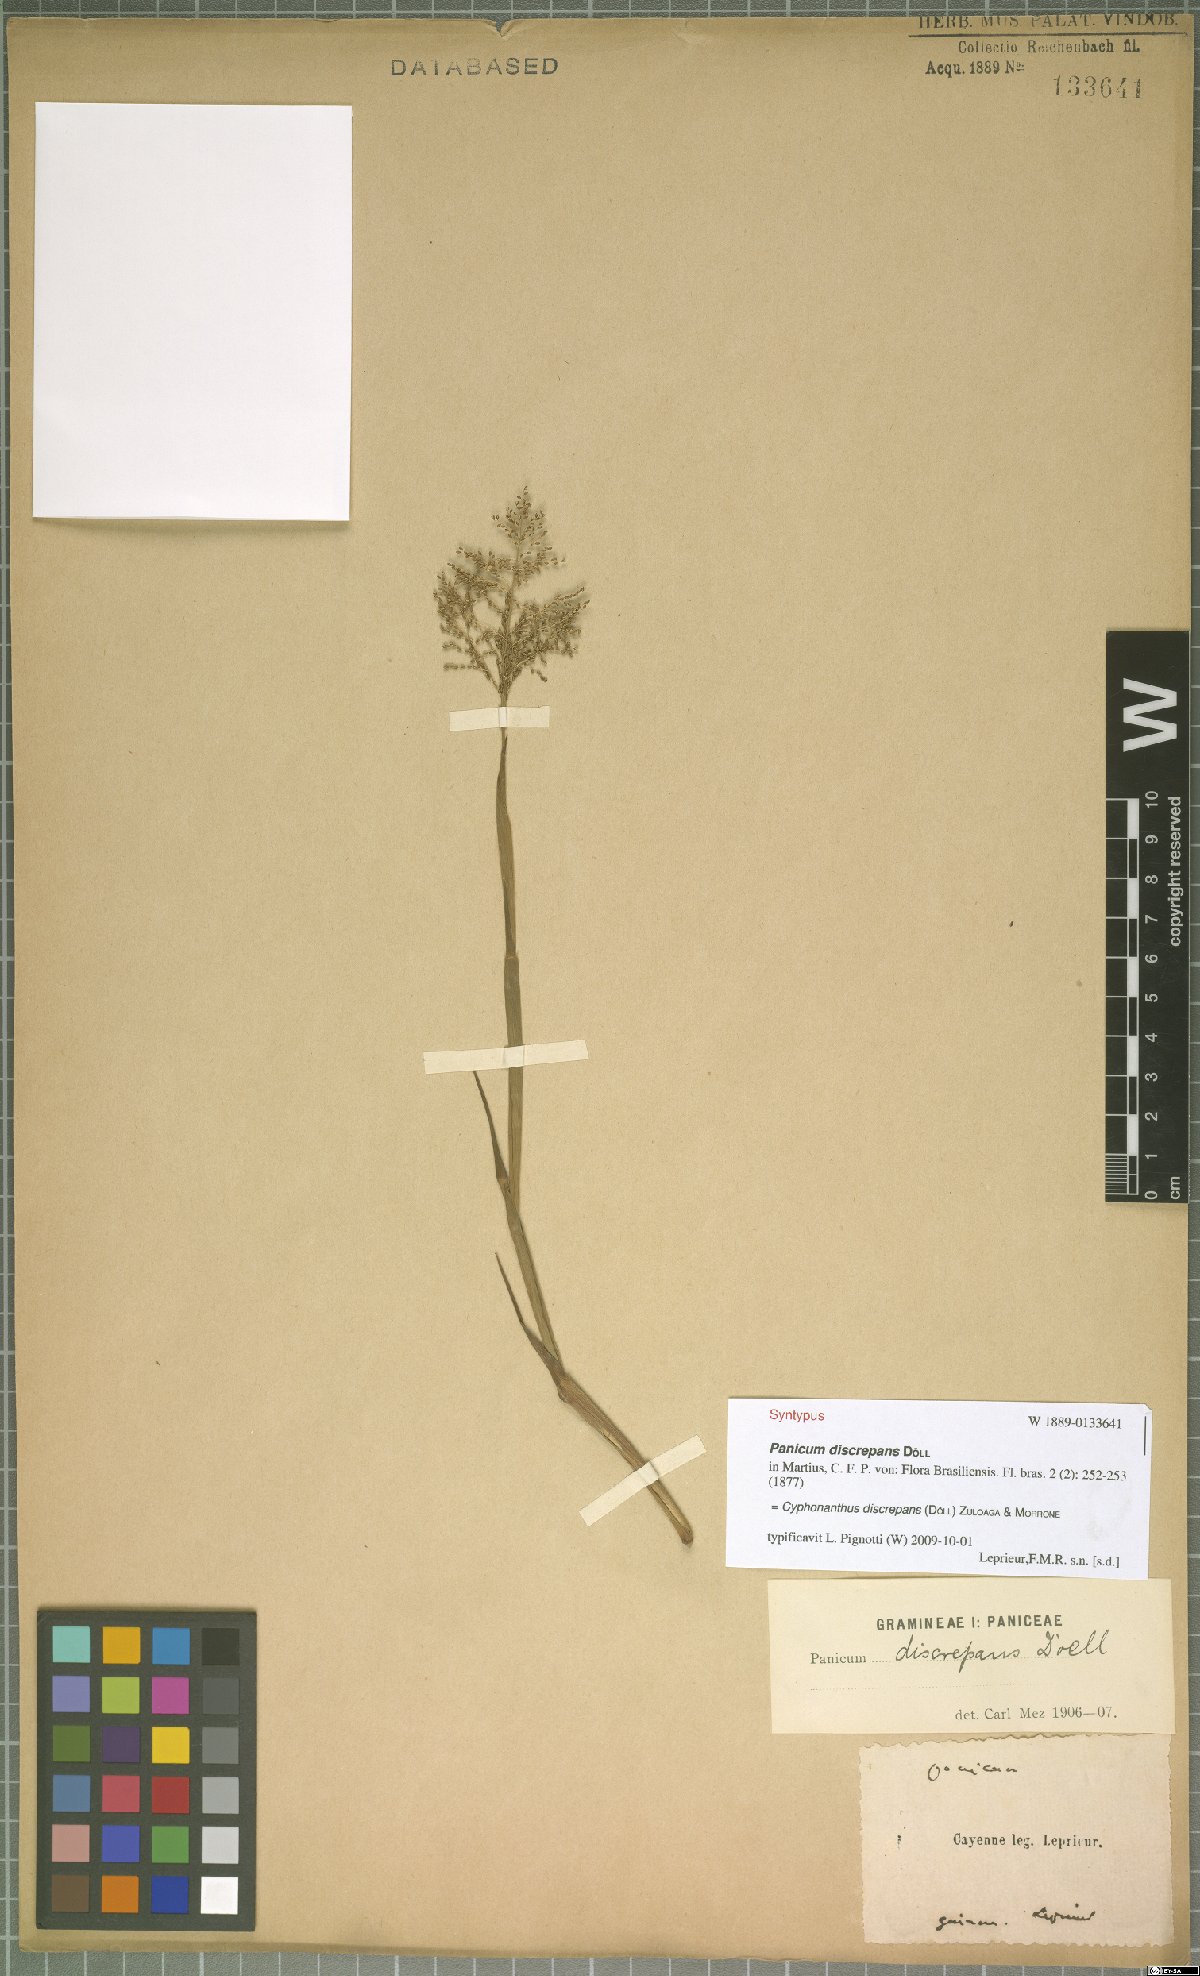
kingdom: Plantae
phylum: Tracheophyta
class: Liliopsida
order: Poales
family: Poaceae
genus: Cyphonanthus
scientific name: Cyphonanthus discrepans
